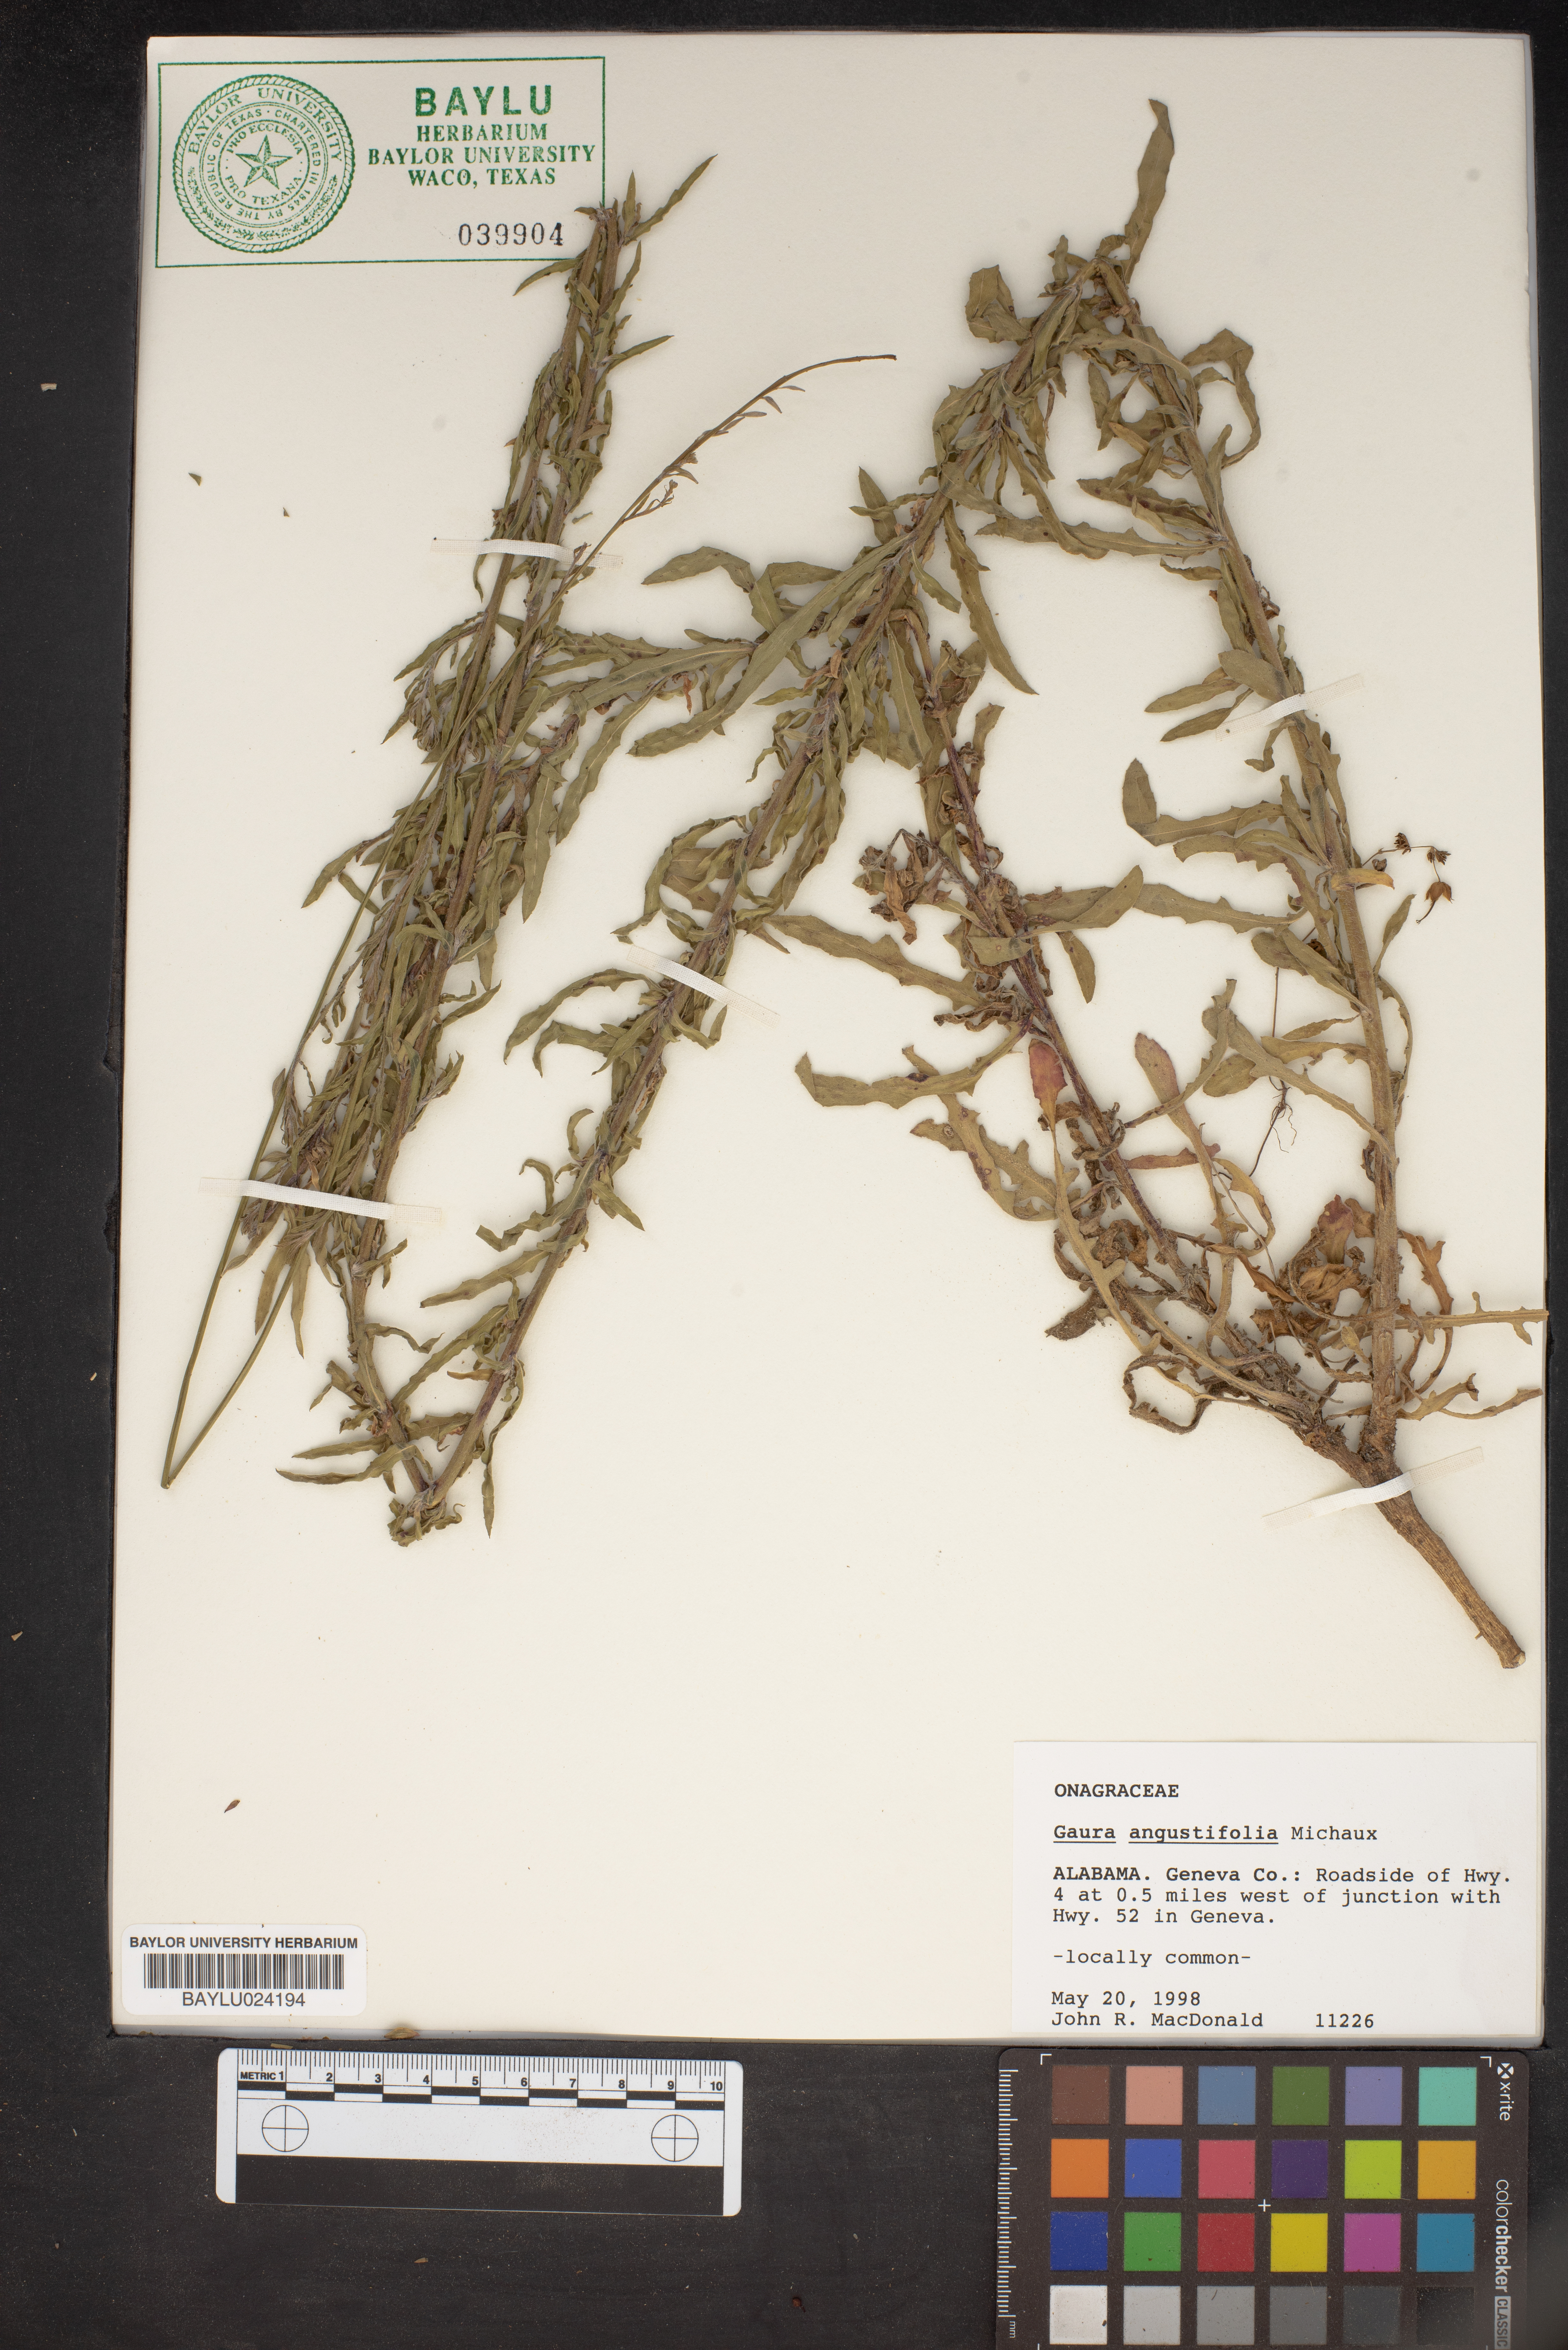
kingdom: Plantae
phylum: Tracheophyta
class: Magnoliopsida
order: Myrtales
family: Onagraceae
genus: Oenothera
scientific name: Oenothera simulans
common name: Southern beeblossom
